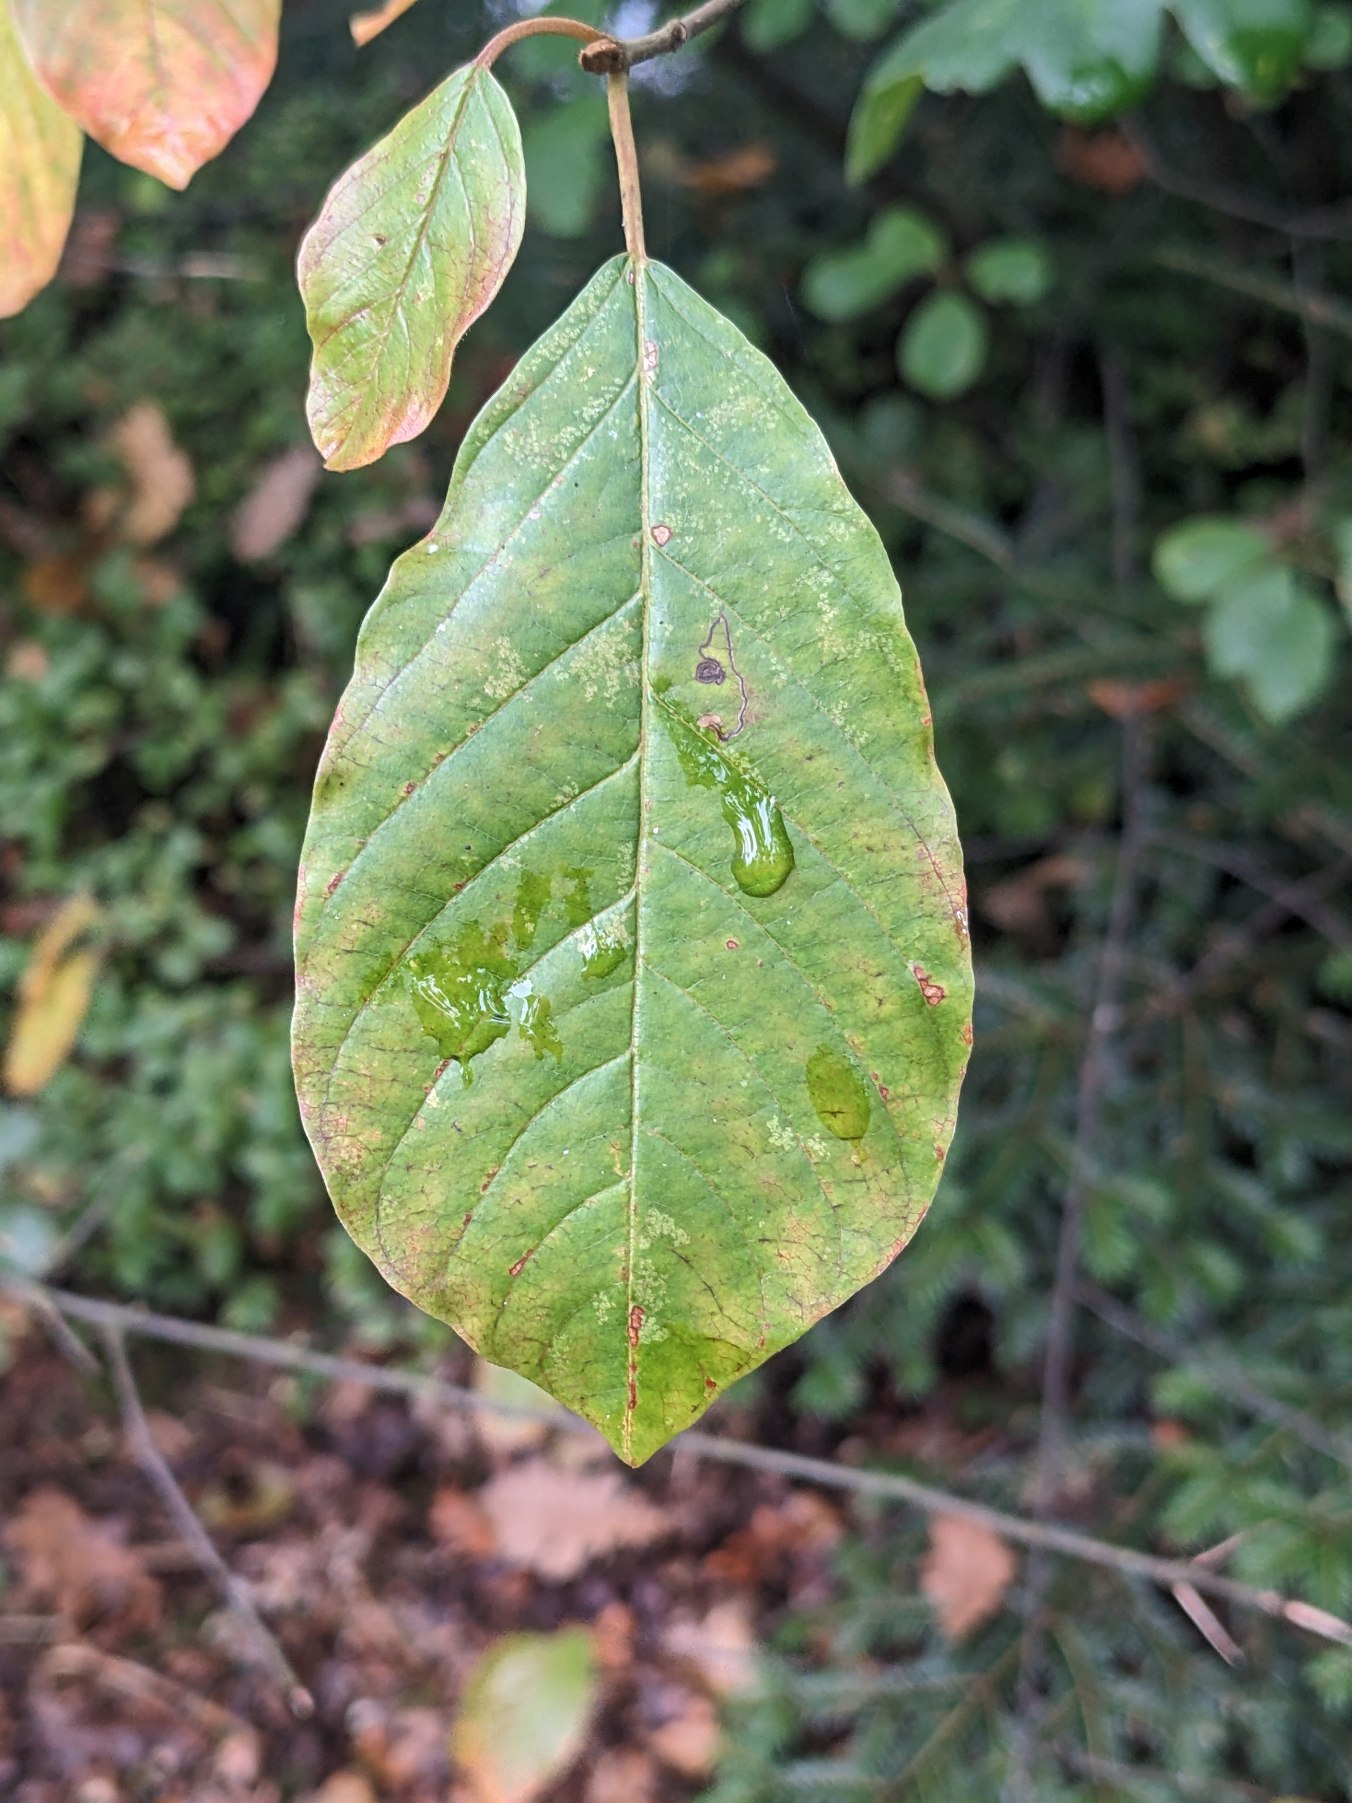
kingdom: Plantae
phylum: Tracheophyta
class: Magnoliopsida
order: Rosales
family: Rhamnaceae
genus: Frangula
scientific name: Frangula alnus
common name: Tørst
